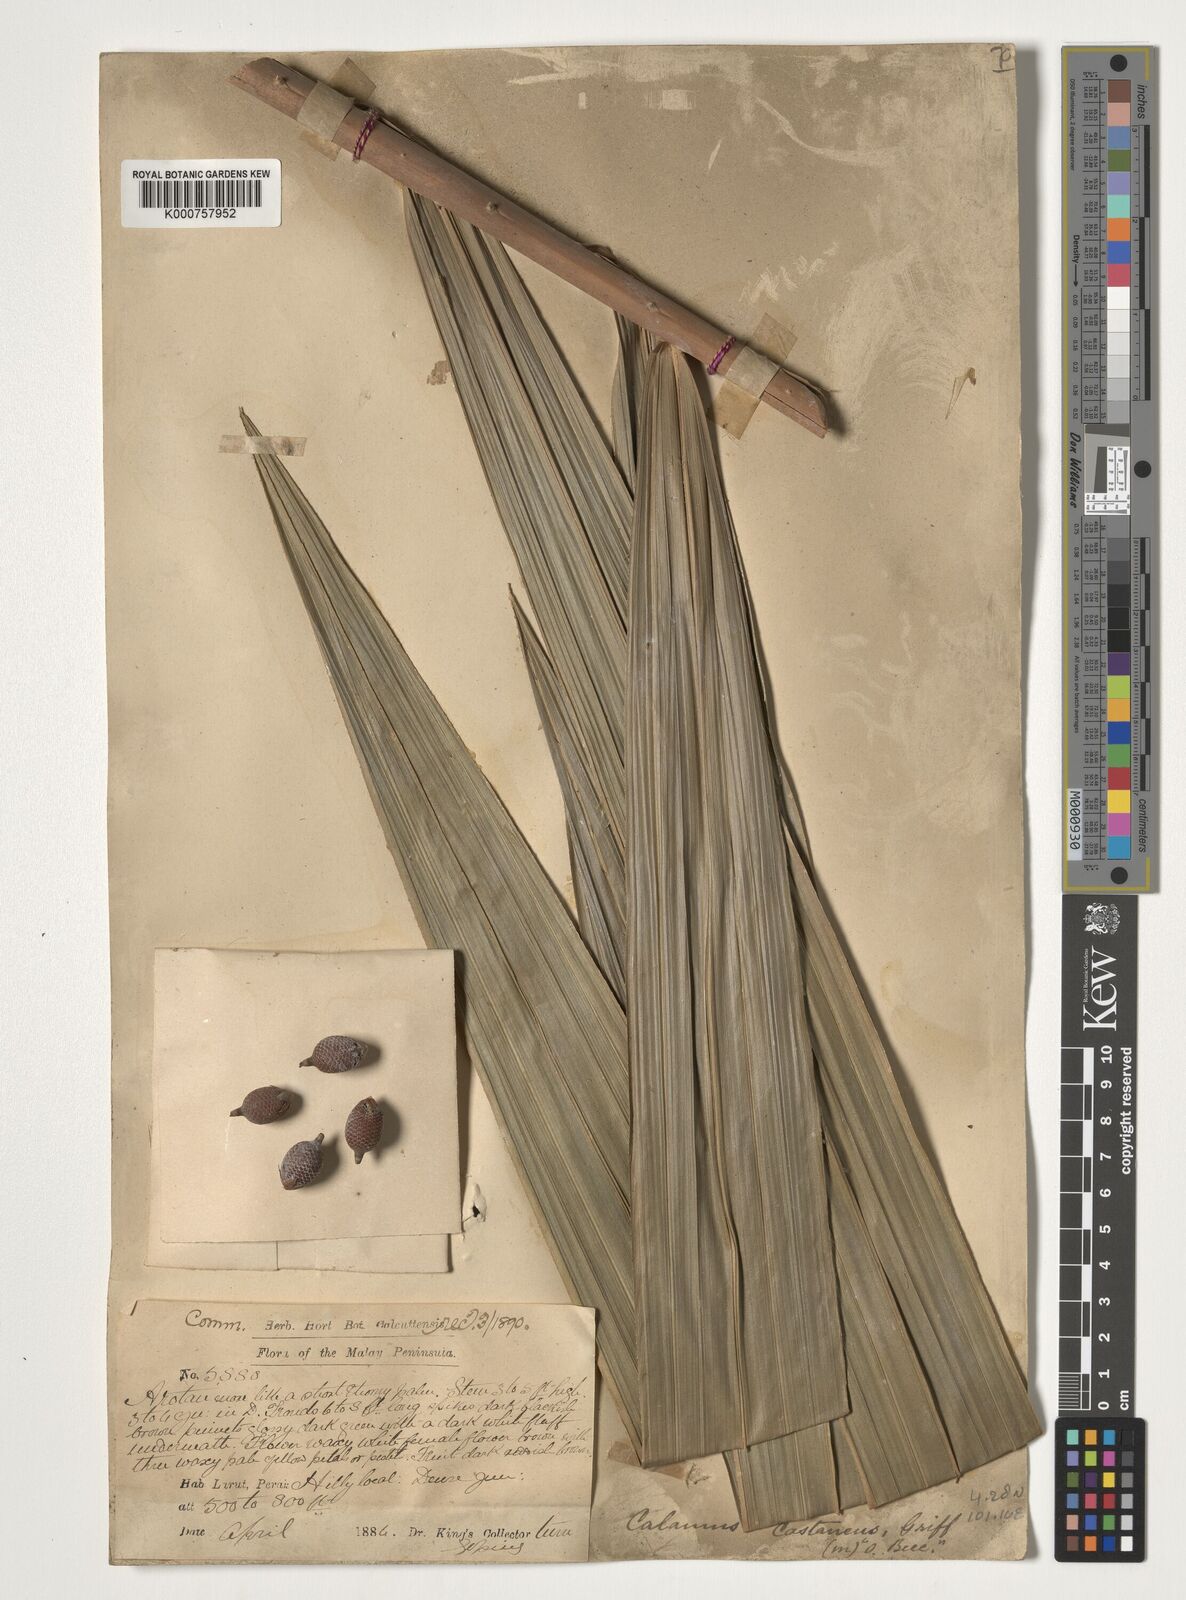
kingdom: Plantae
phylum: Tracheophyta
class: Liliopsida
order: Arecales
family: Arecaceae
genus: Calamus
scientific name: Calamus castaneus
